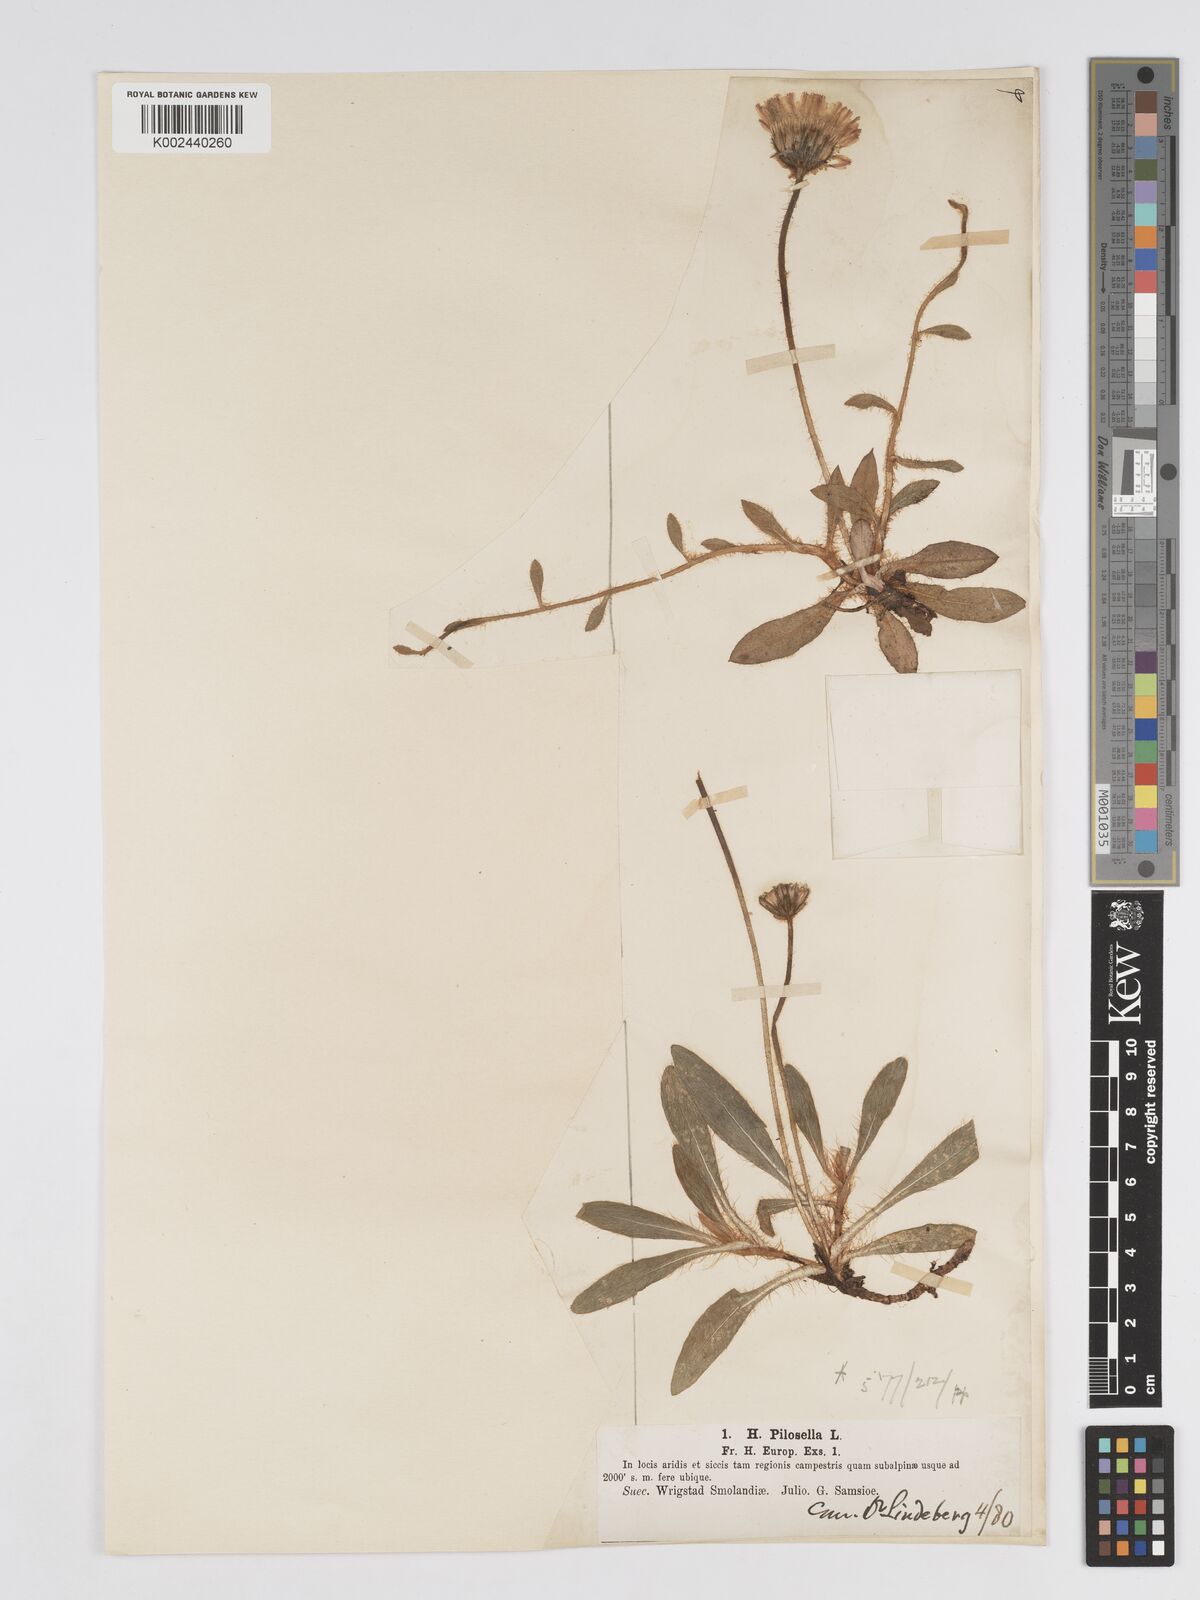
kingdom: Plantae
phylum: Tracheophyta
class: Magnoliopsida
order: Asterales
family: Asteraceae
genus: Pilosella
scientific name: Pilosella officinarum
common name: Mouse-ear hawkweed
